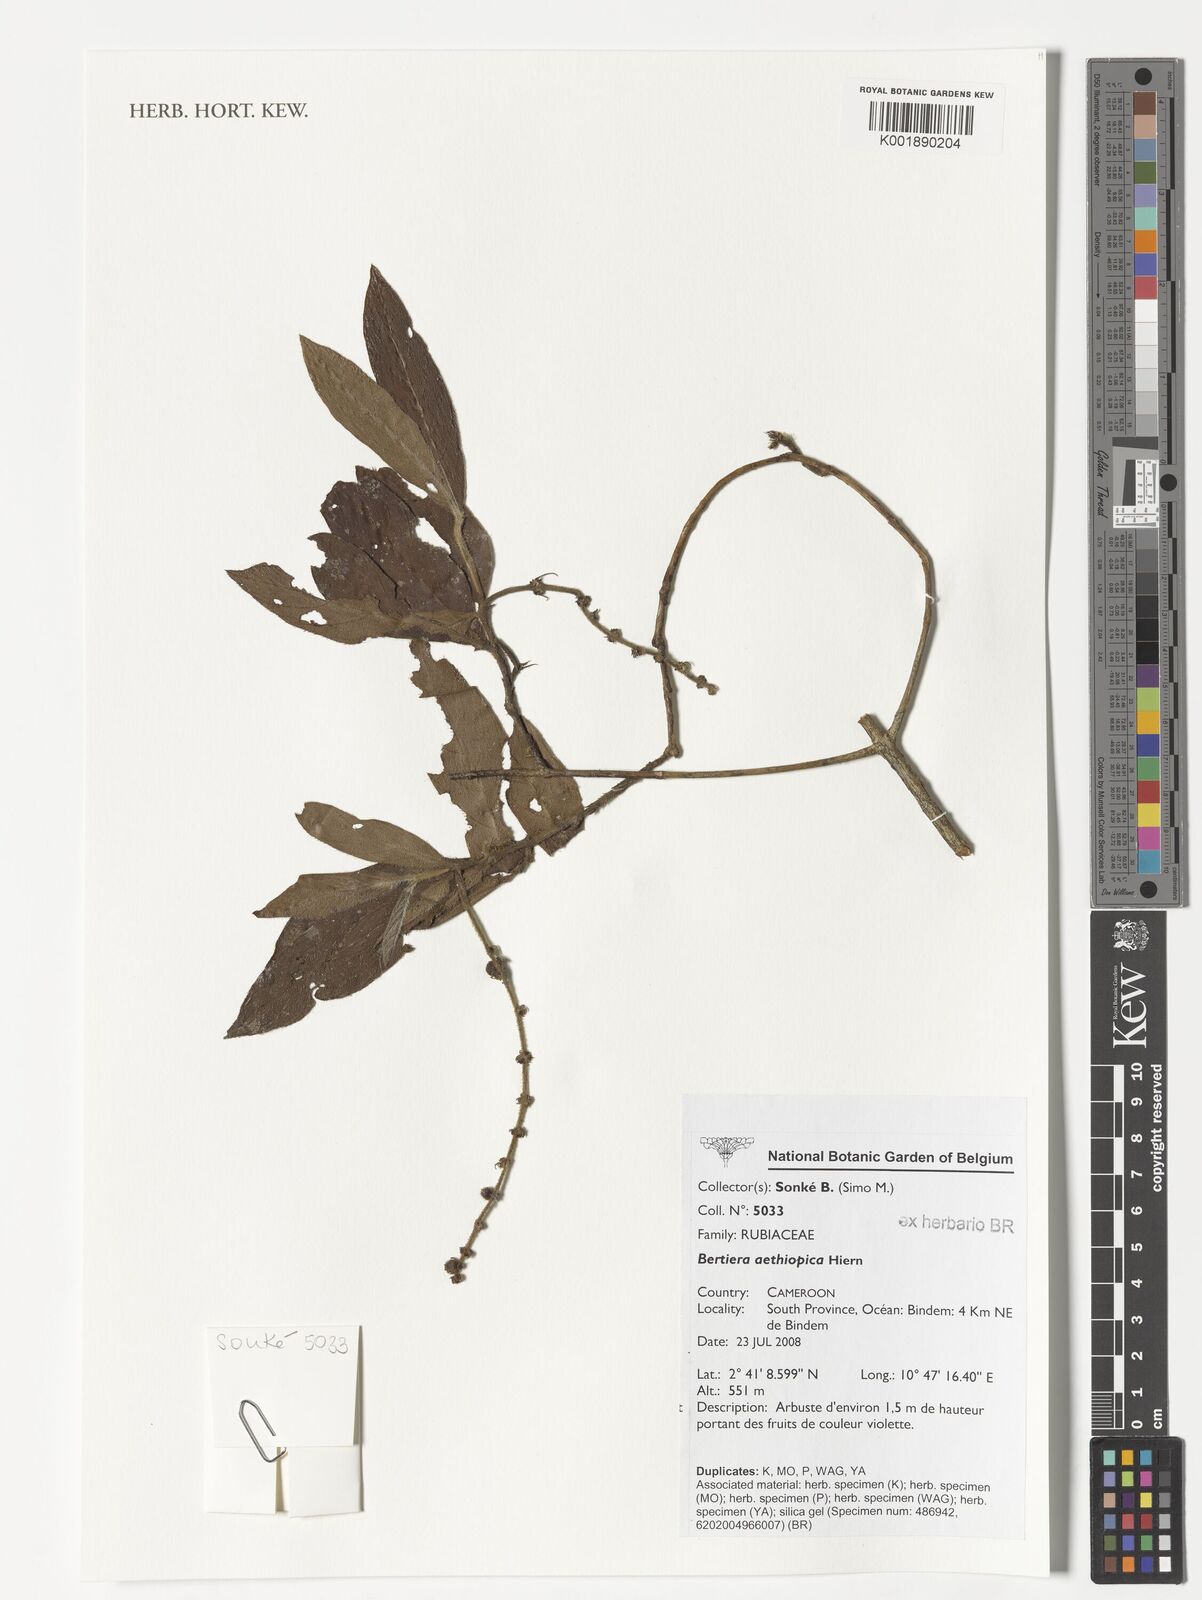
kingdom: Plantae
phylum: Tracheophyta
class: Magnoliopsida
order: Gentianales
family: Rubiaceae
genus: Bertiera
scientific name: Bertiera aethiopica
